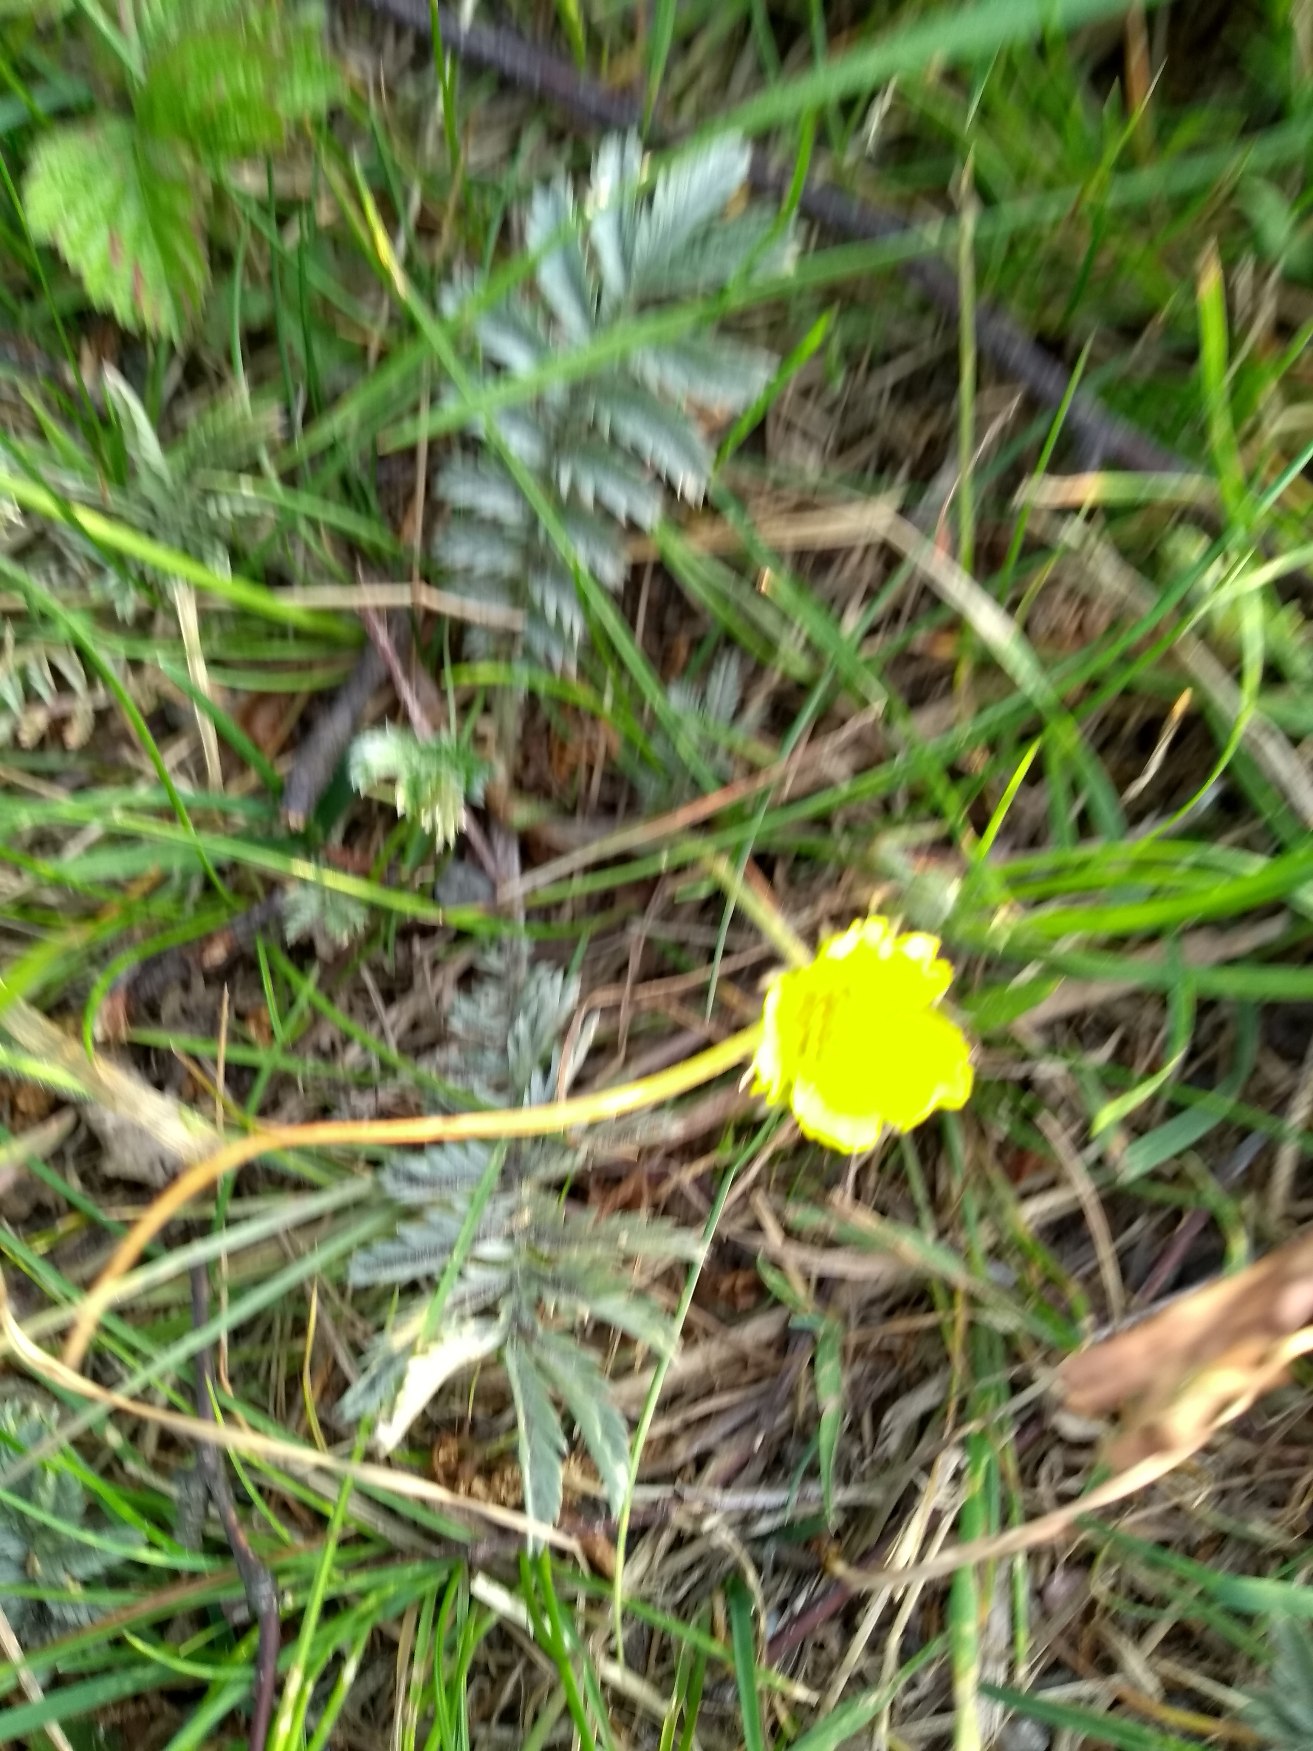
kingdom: Plantae
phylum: Tracheophyta
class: Magnoliopsida
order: Rosales
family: Rosaceae
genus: Argentina
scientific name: Argentina anserina
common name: Gåsepotentil
